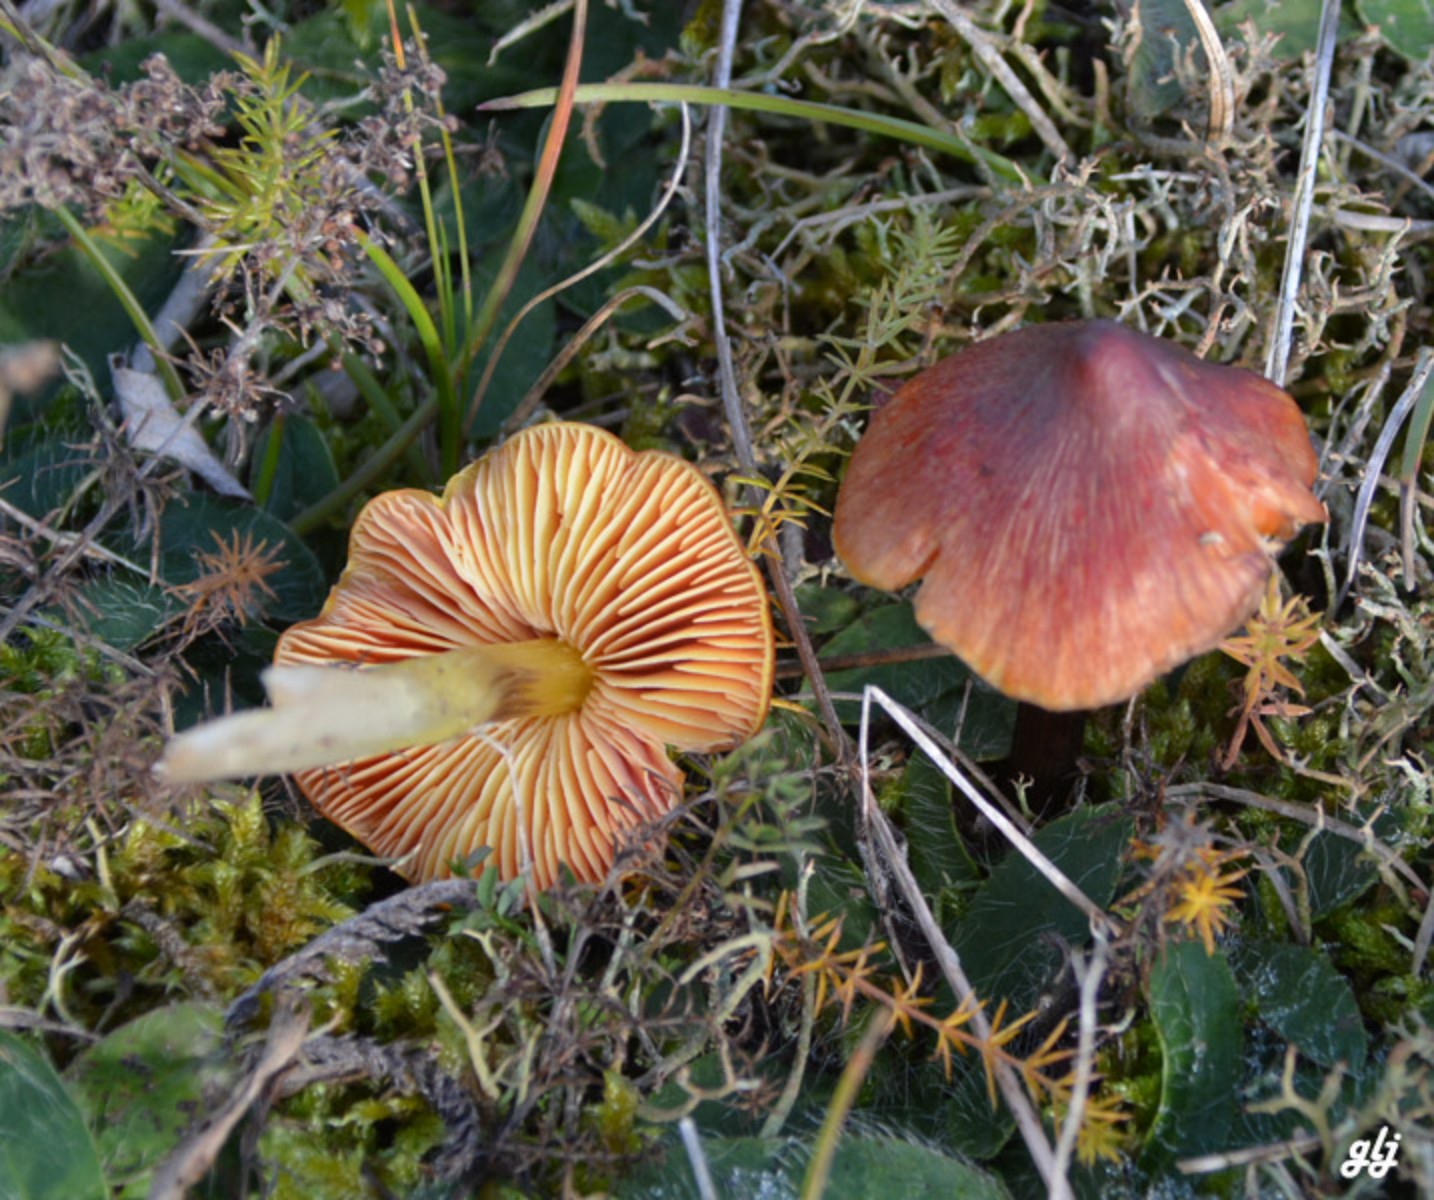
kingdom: Fungi
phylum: Basidiomycota
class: Agaricomycetes
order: Agaricales
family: Hygrophoraceae
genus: Hygrocybe
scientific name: Hygrocybe conicoides
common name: klit-vokshat
